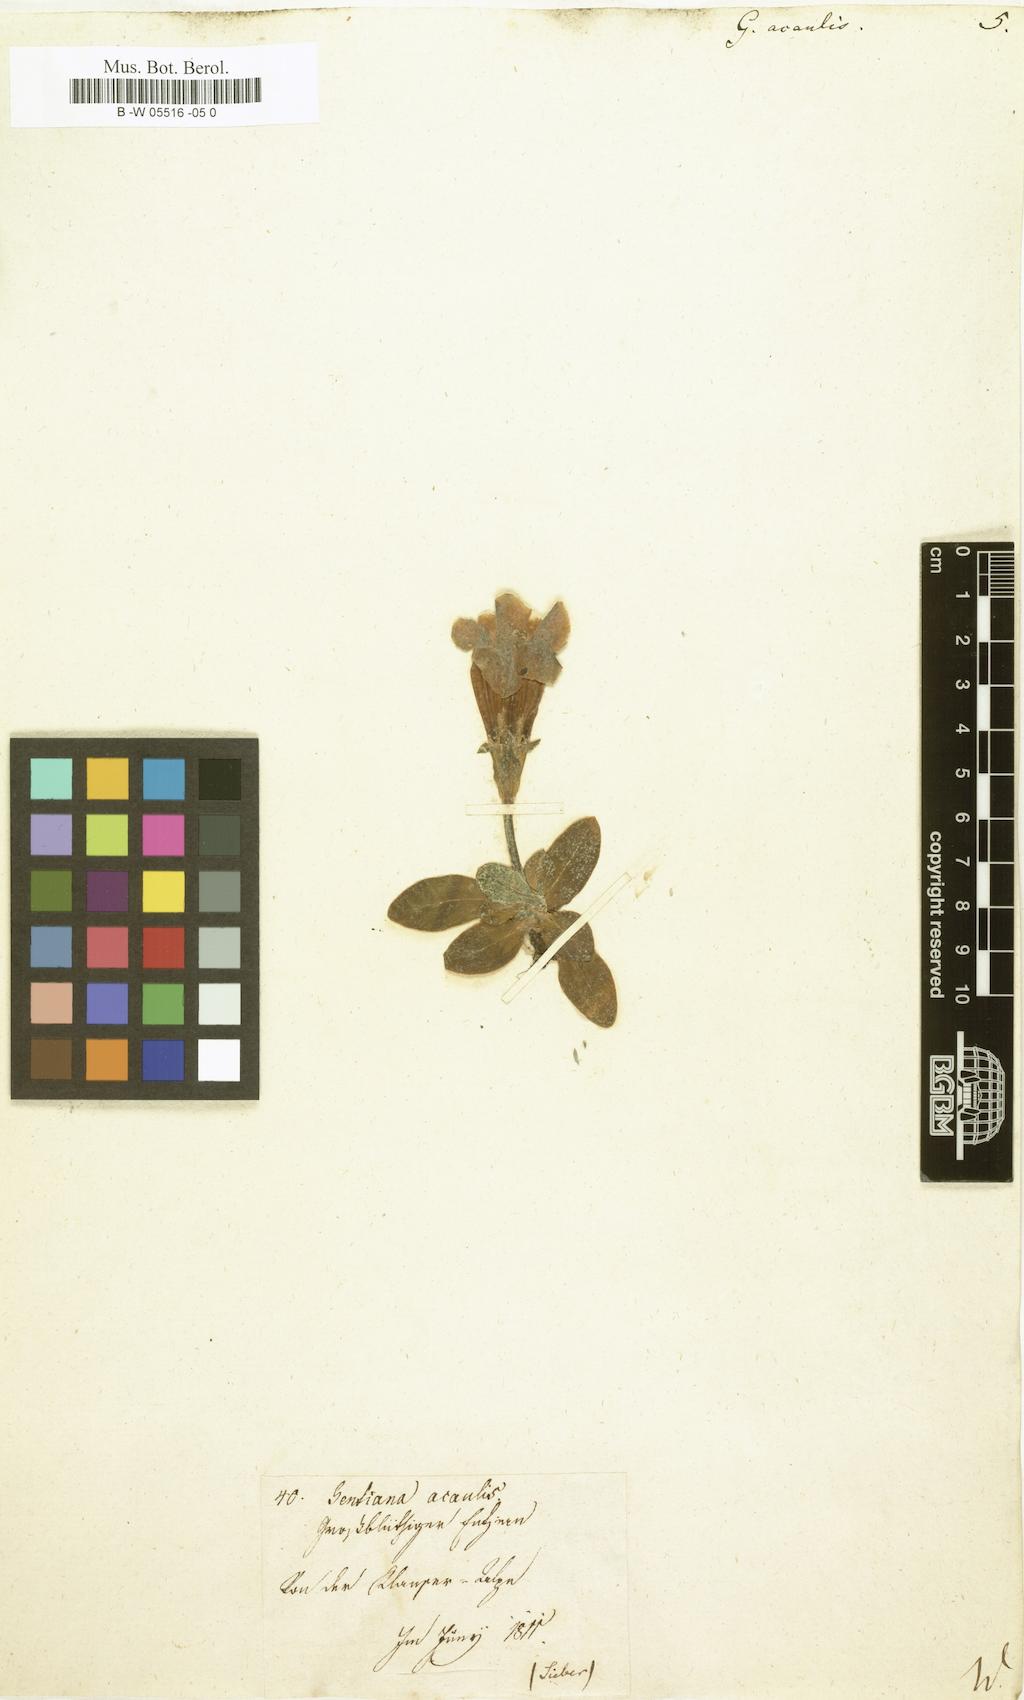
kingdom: Plantae
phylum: Tracheophyta
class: Magnoliopsida
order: Gentianales
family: Gentianaceae
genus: Gentiana
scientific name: Gentiana acaulis
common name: Trumpet gentian
